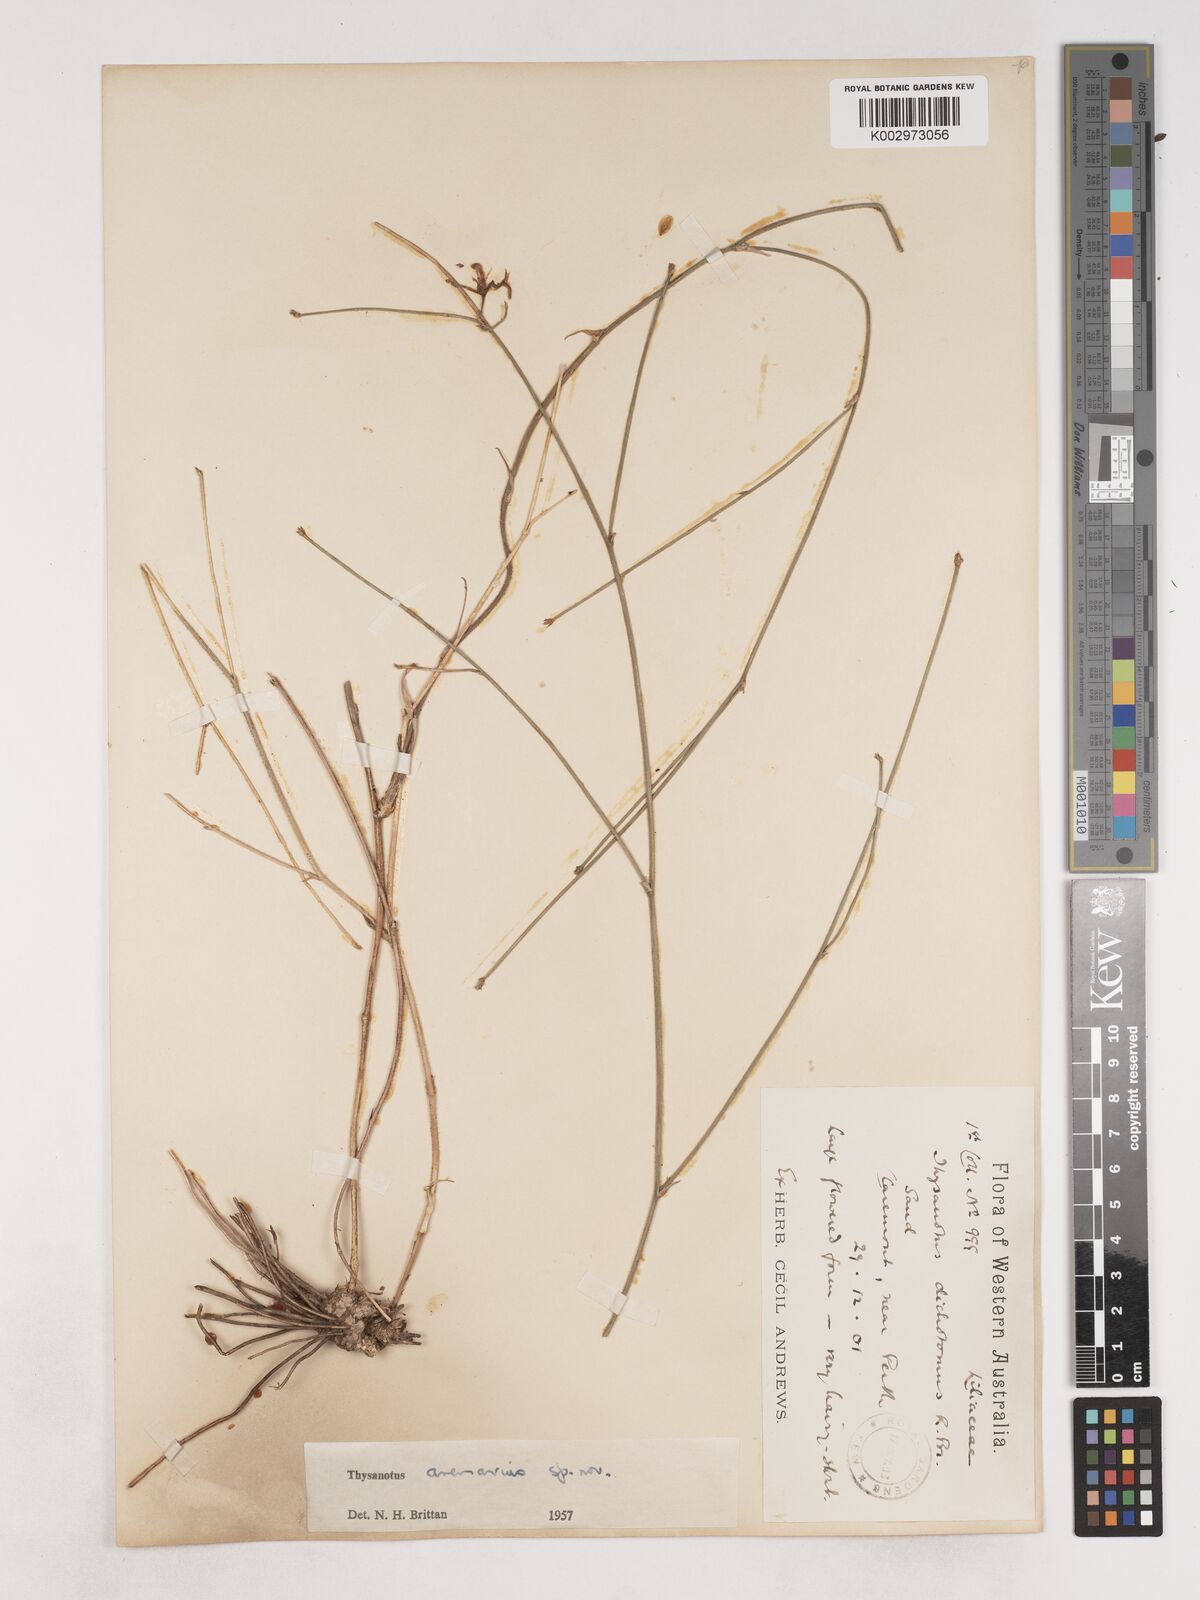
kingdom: Plantae
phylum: Tracheophyta
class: Liliopsida
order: Asparagales
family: Asparagaceae
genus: Thysanotus
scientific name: Thysanotus arenarius
